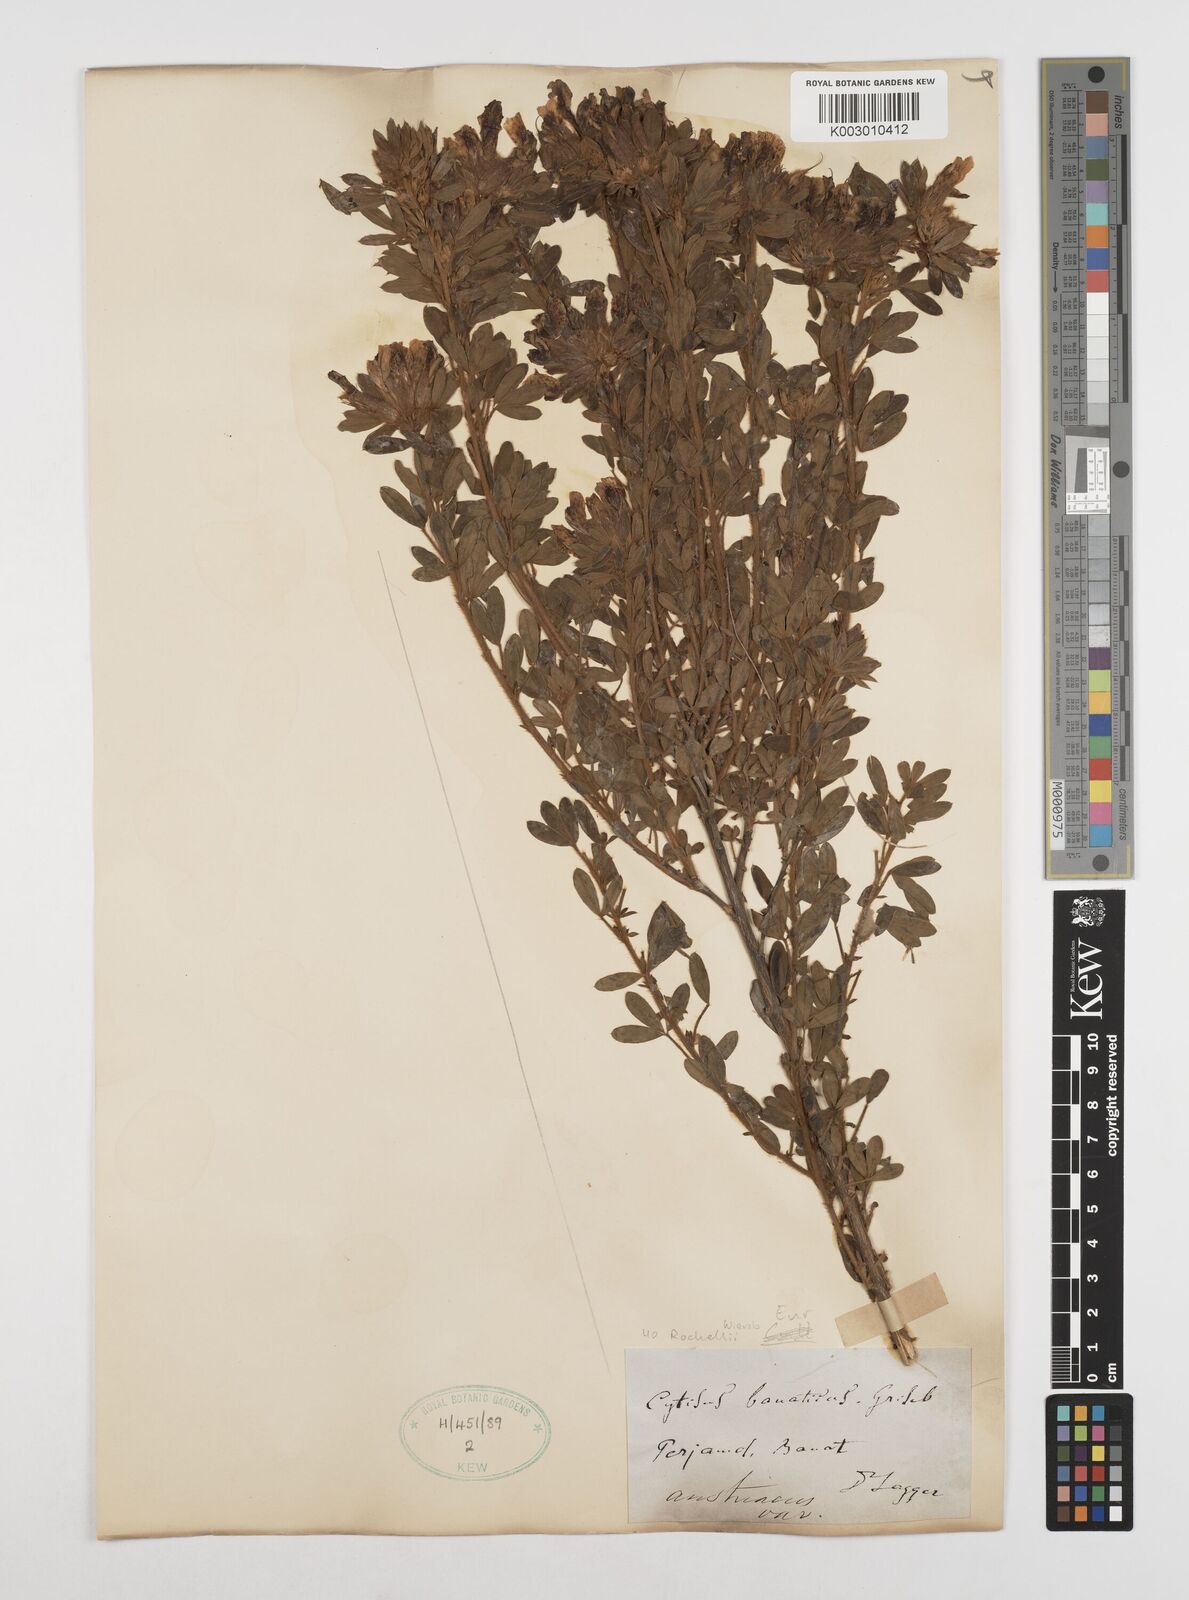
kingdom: Plantae
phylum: Tracheophyta
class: Magnoliopsida
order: Fabales
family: Fabaceae
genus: Chamaecytisus
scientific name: Chamaecytisus rochelii
